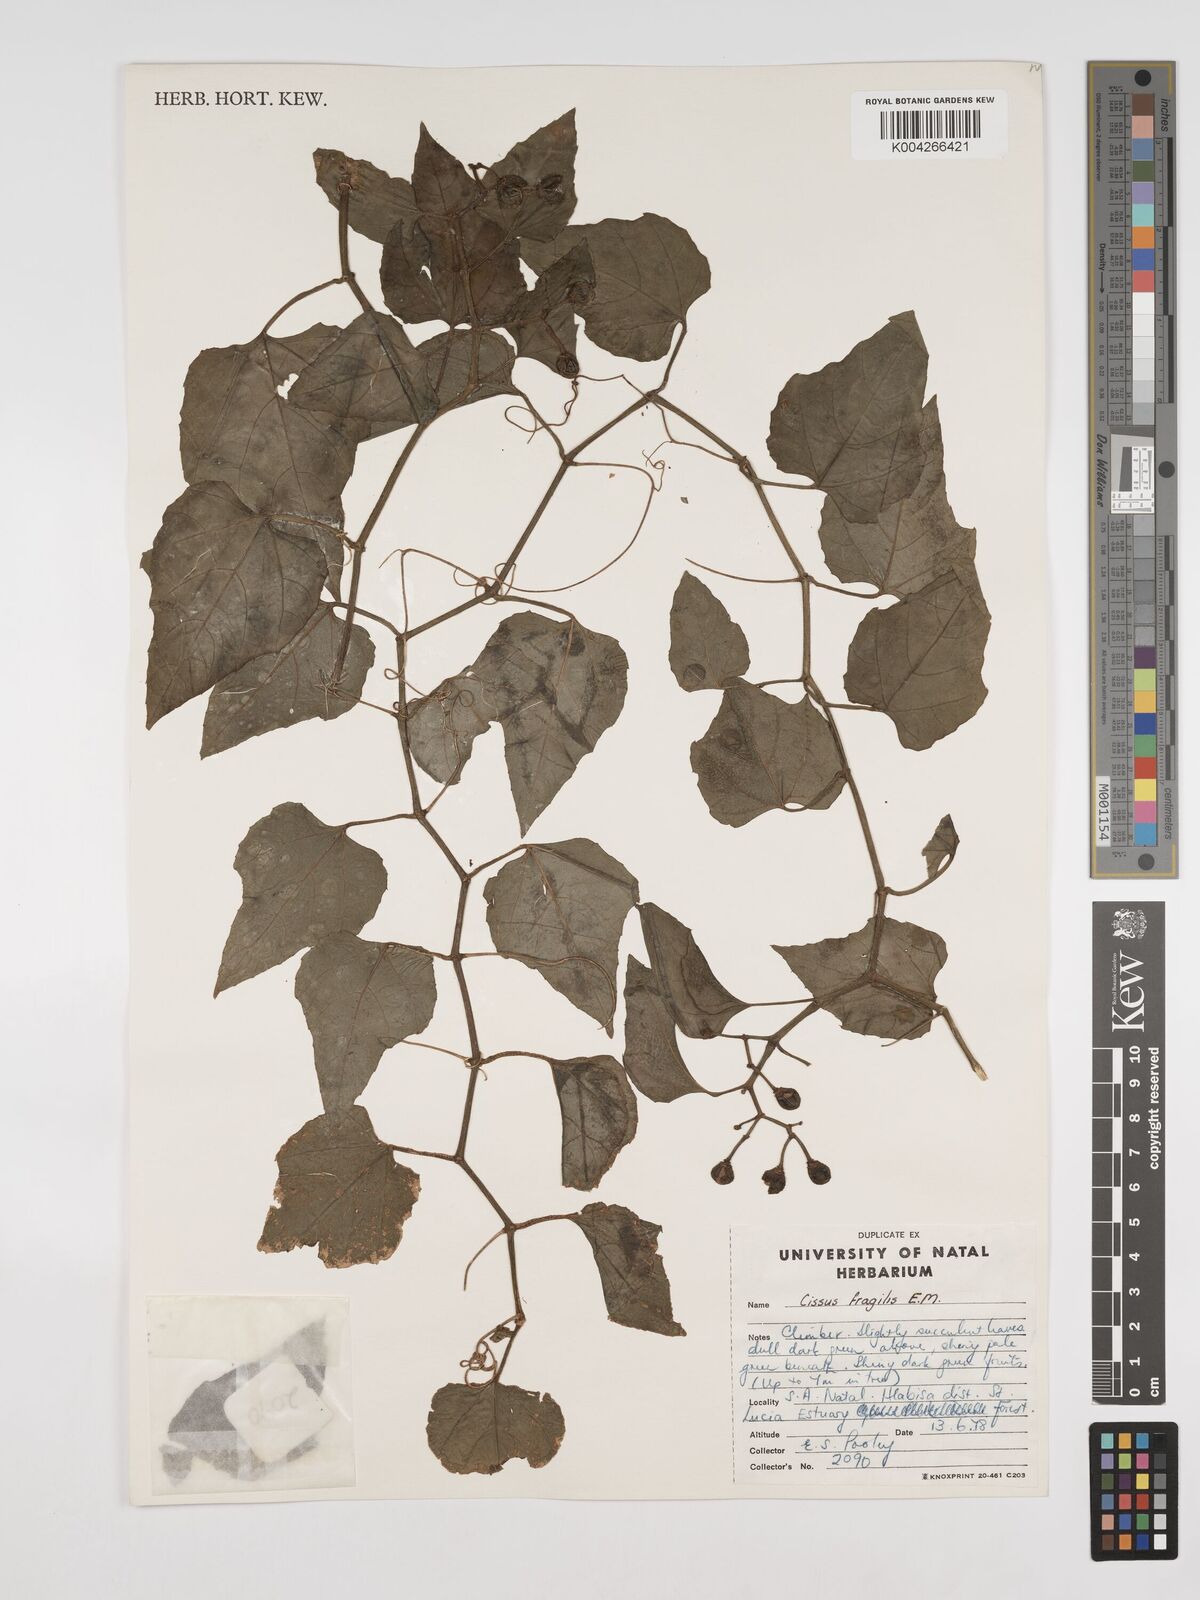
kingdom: Plantae
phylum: Tracheophyta
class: Magnoliopsida
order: Vitales
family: Vitaceae
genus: Cissus
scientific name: Cissus fragilis
